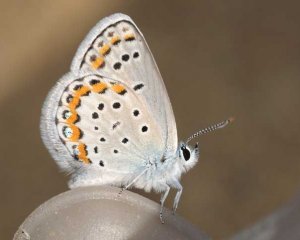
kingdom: Animalia
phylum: Arthropoda
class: Insecta
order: Lepidoptera
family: Lycaenidae
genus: Lycaeides
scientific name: Lycaeides melissa
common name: Melissa Blue
